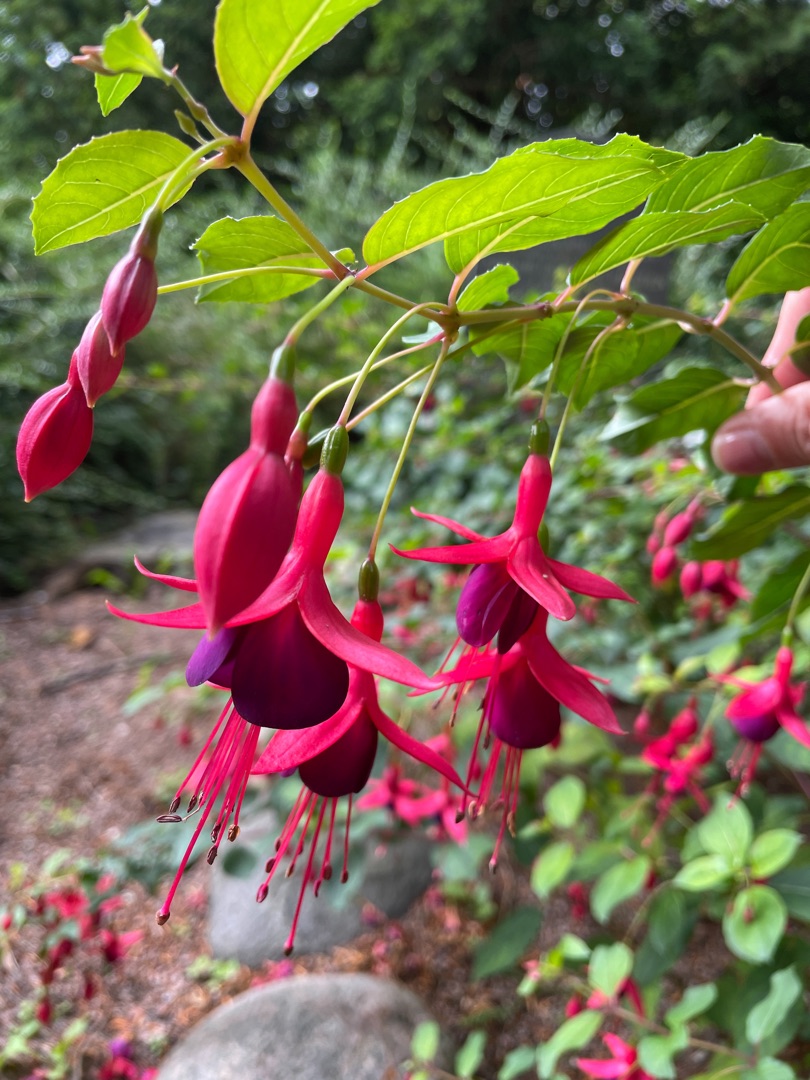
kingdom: Plantae
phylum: Tracheophyta
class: Magnoliopsida
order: Myrtales
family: Onagraceae
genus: Fuchsia
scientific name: Fuchsia standishii
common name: Almindelig fuchsia
